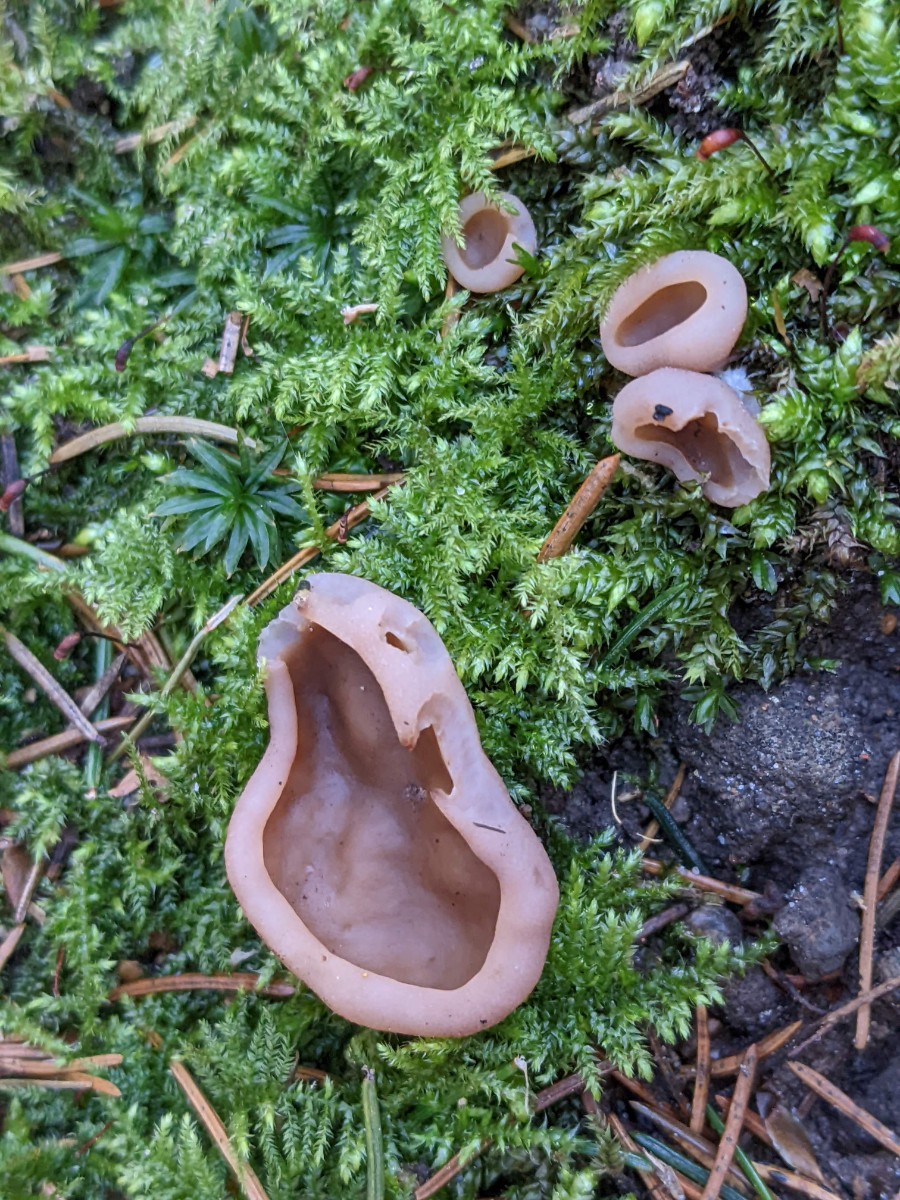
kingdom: Fungi
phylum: Ascomycota
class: Pezizomycetes
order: Pezizales
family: Discinaceae
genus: Discina
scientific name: Discina ancilis
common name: udbredt stenmorkel
